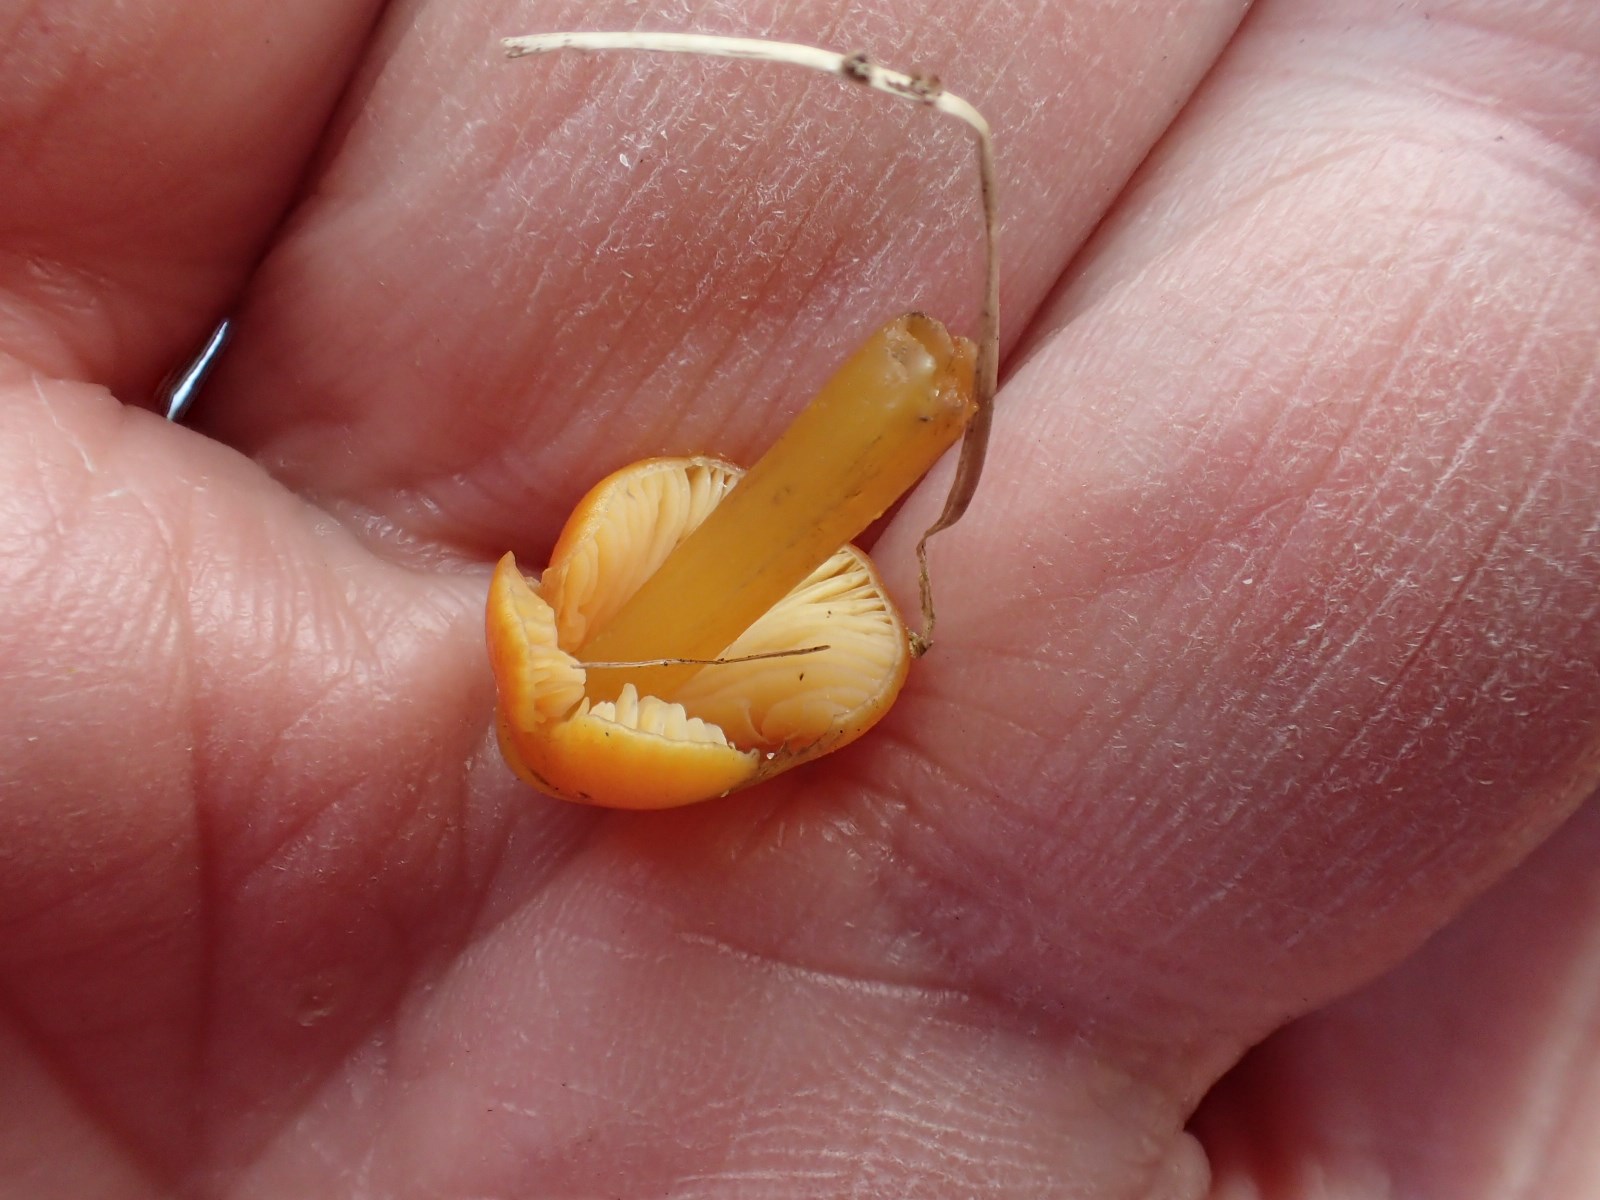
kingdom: Fungi
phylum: Basidiomycota
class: Agaricomycetes
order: Agaricales
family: Hygrophoraceae
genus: Hygrocybe
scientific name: Hygrocybe conica
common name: kegle-vokshat
